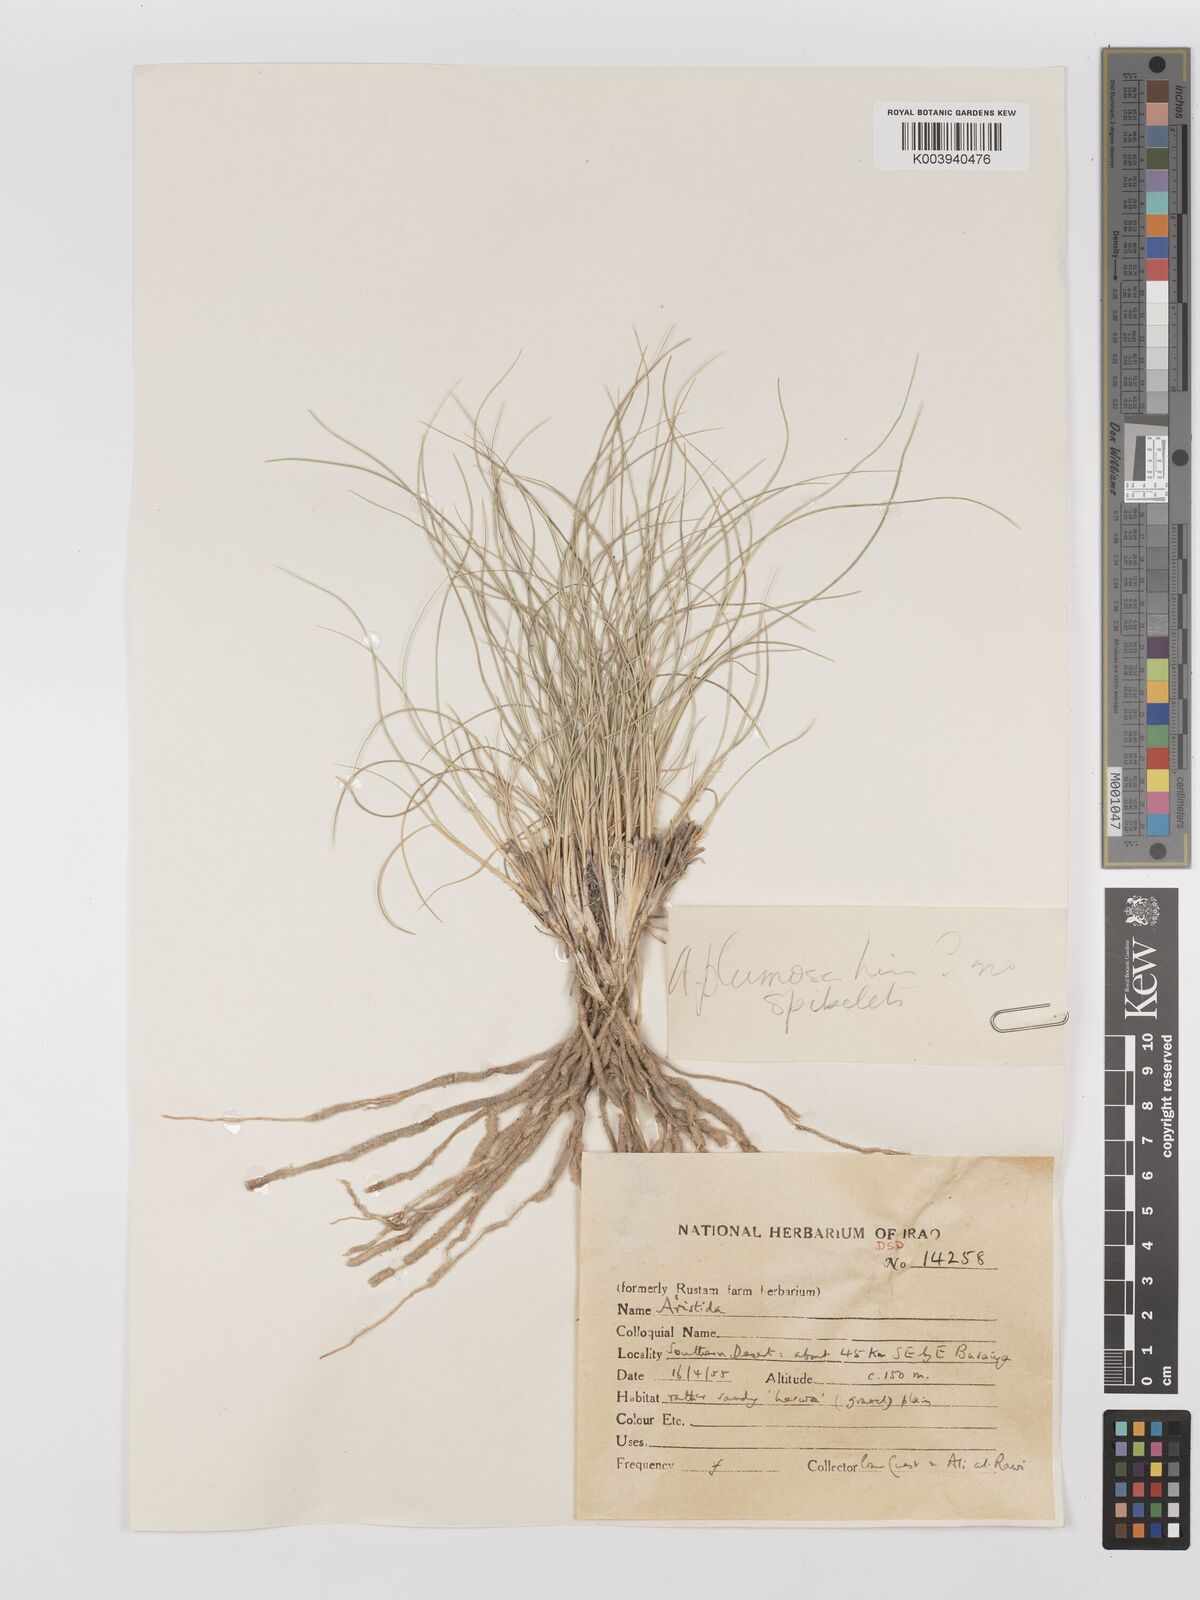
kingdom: Plantae
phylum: Tracheophyta
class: Liliopsida
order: Poales
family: Poaceae
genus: Stipagrostis
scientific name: Stipagrostis plumosa
